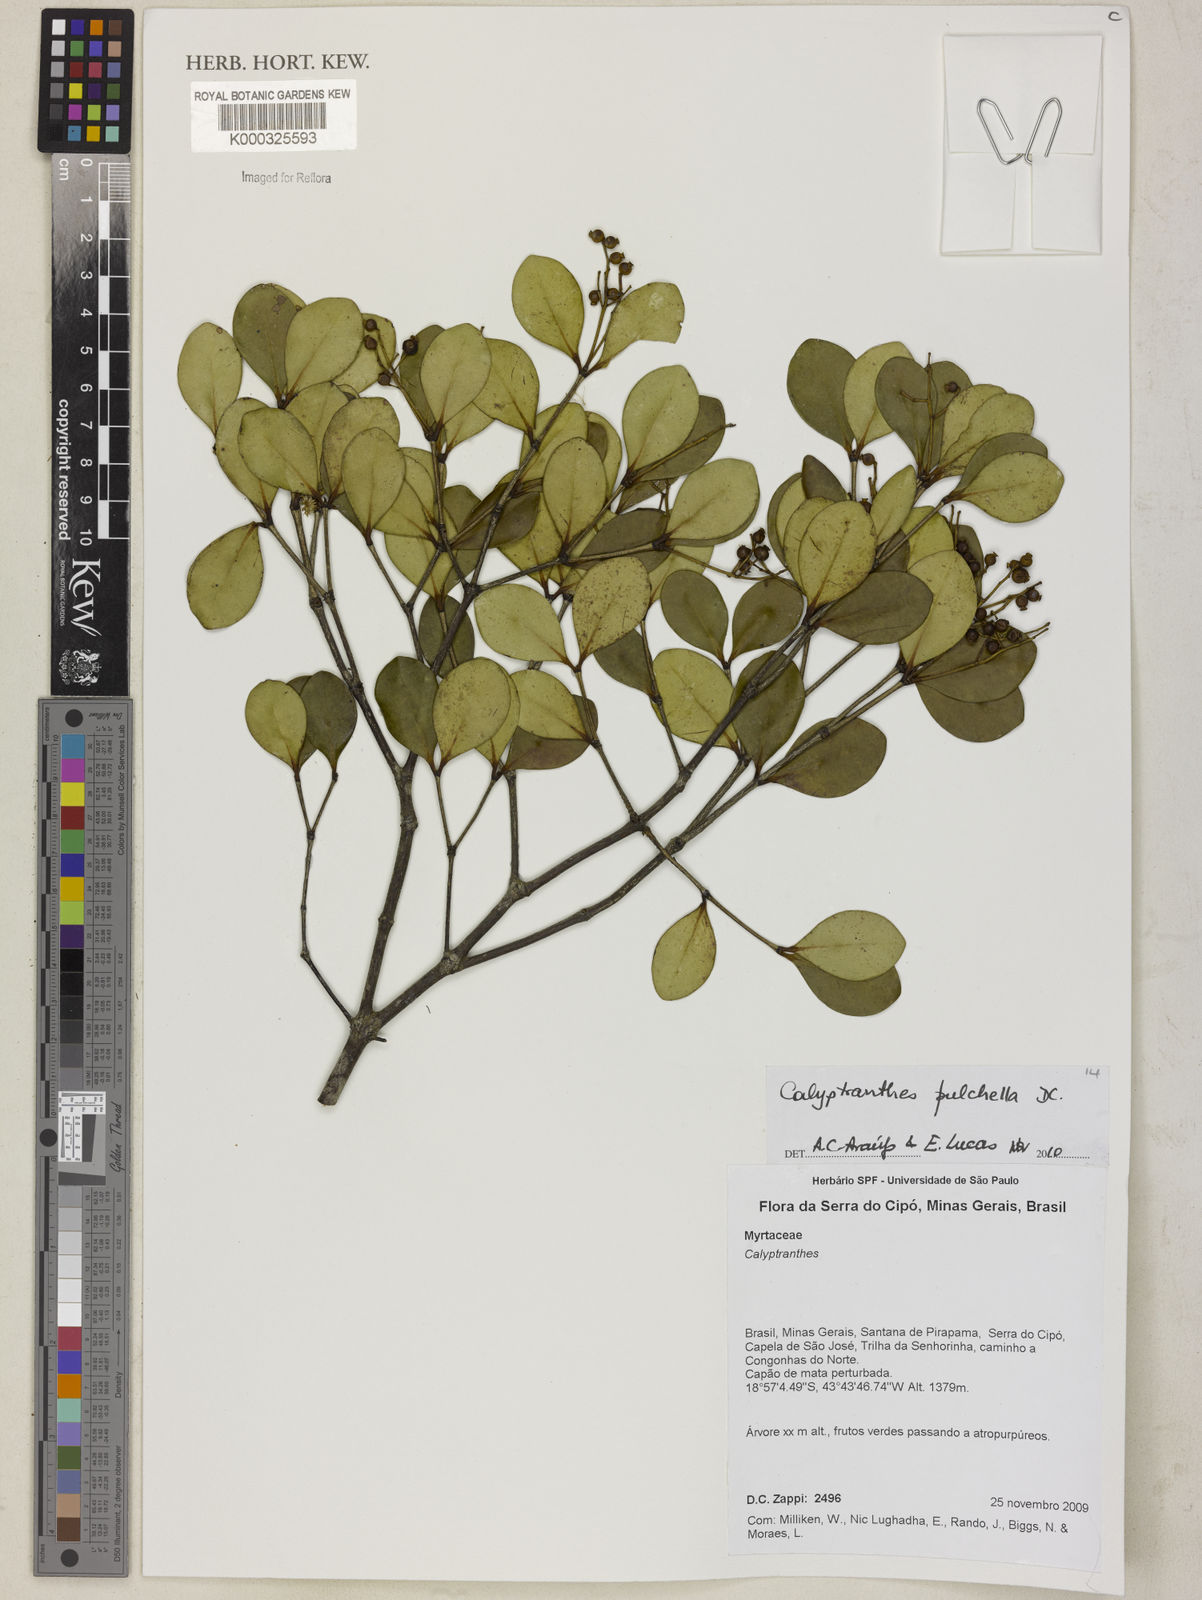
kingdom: Plantae
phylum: Tracheophyta
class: Magnoliopsida
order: Myrtales
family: Myrtaceae
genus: Myrcia
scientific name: Myrcia pulchella
